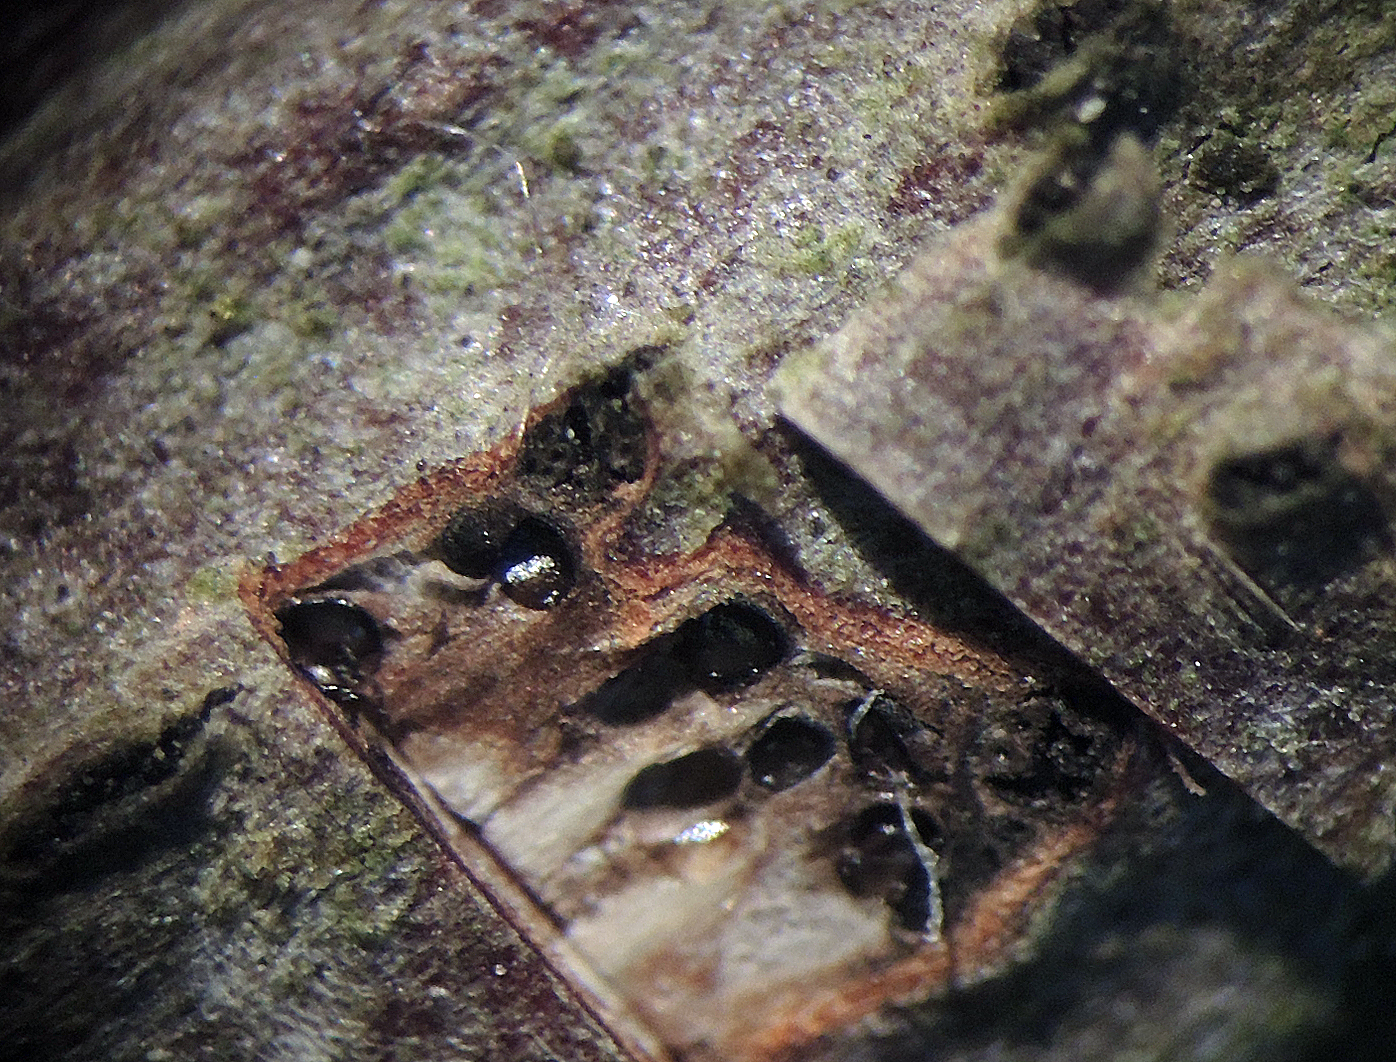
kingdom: Fungi
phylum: Ascomycota
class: Sordariomycetes
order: Diaporthales
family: Diaporthaceae
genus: Diaporthe
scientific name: Diaporthe circumscripta
